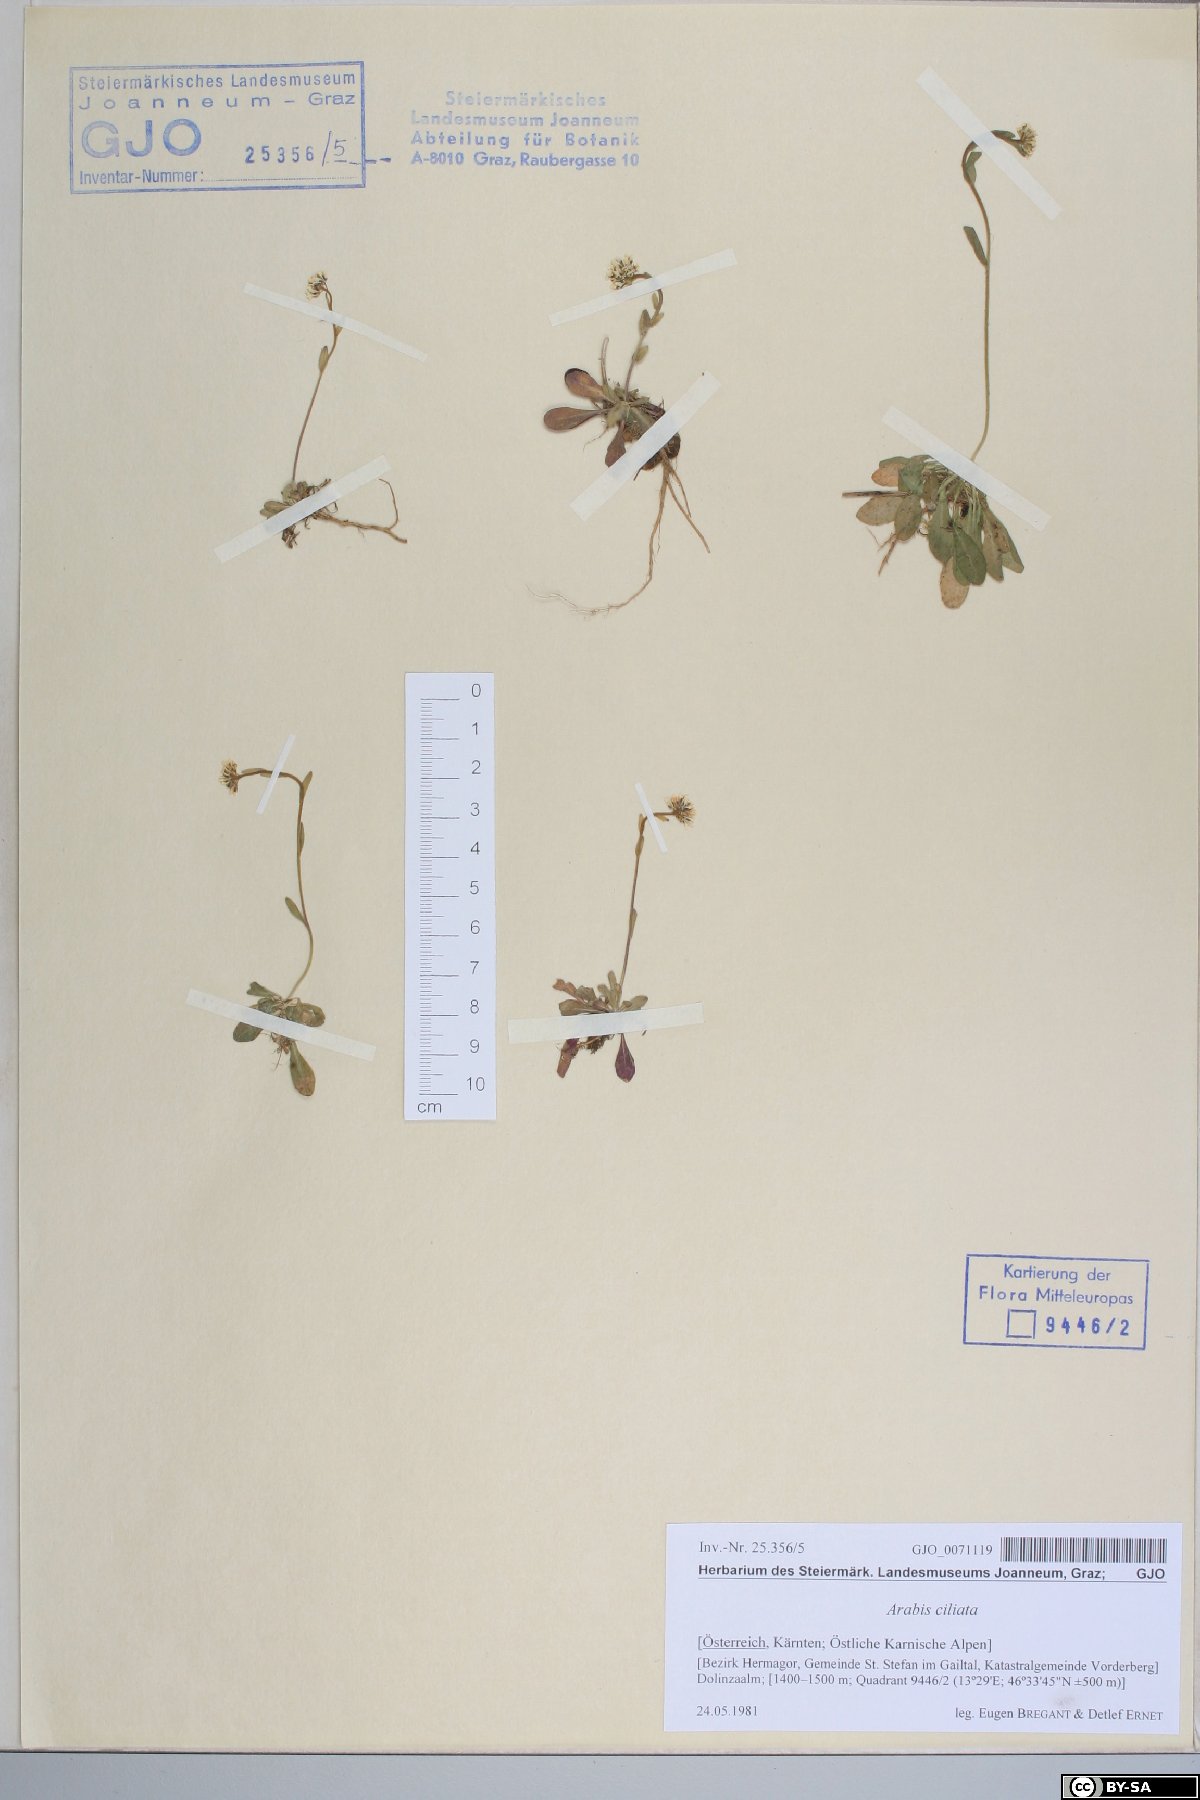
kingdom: Plantae
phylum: Tracheophyta
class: Magnoliopsida
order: Brassicales
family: Brassicaceae
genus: Arabis
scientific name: Arabis ciliata
